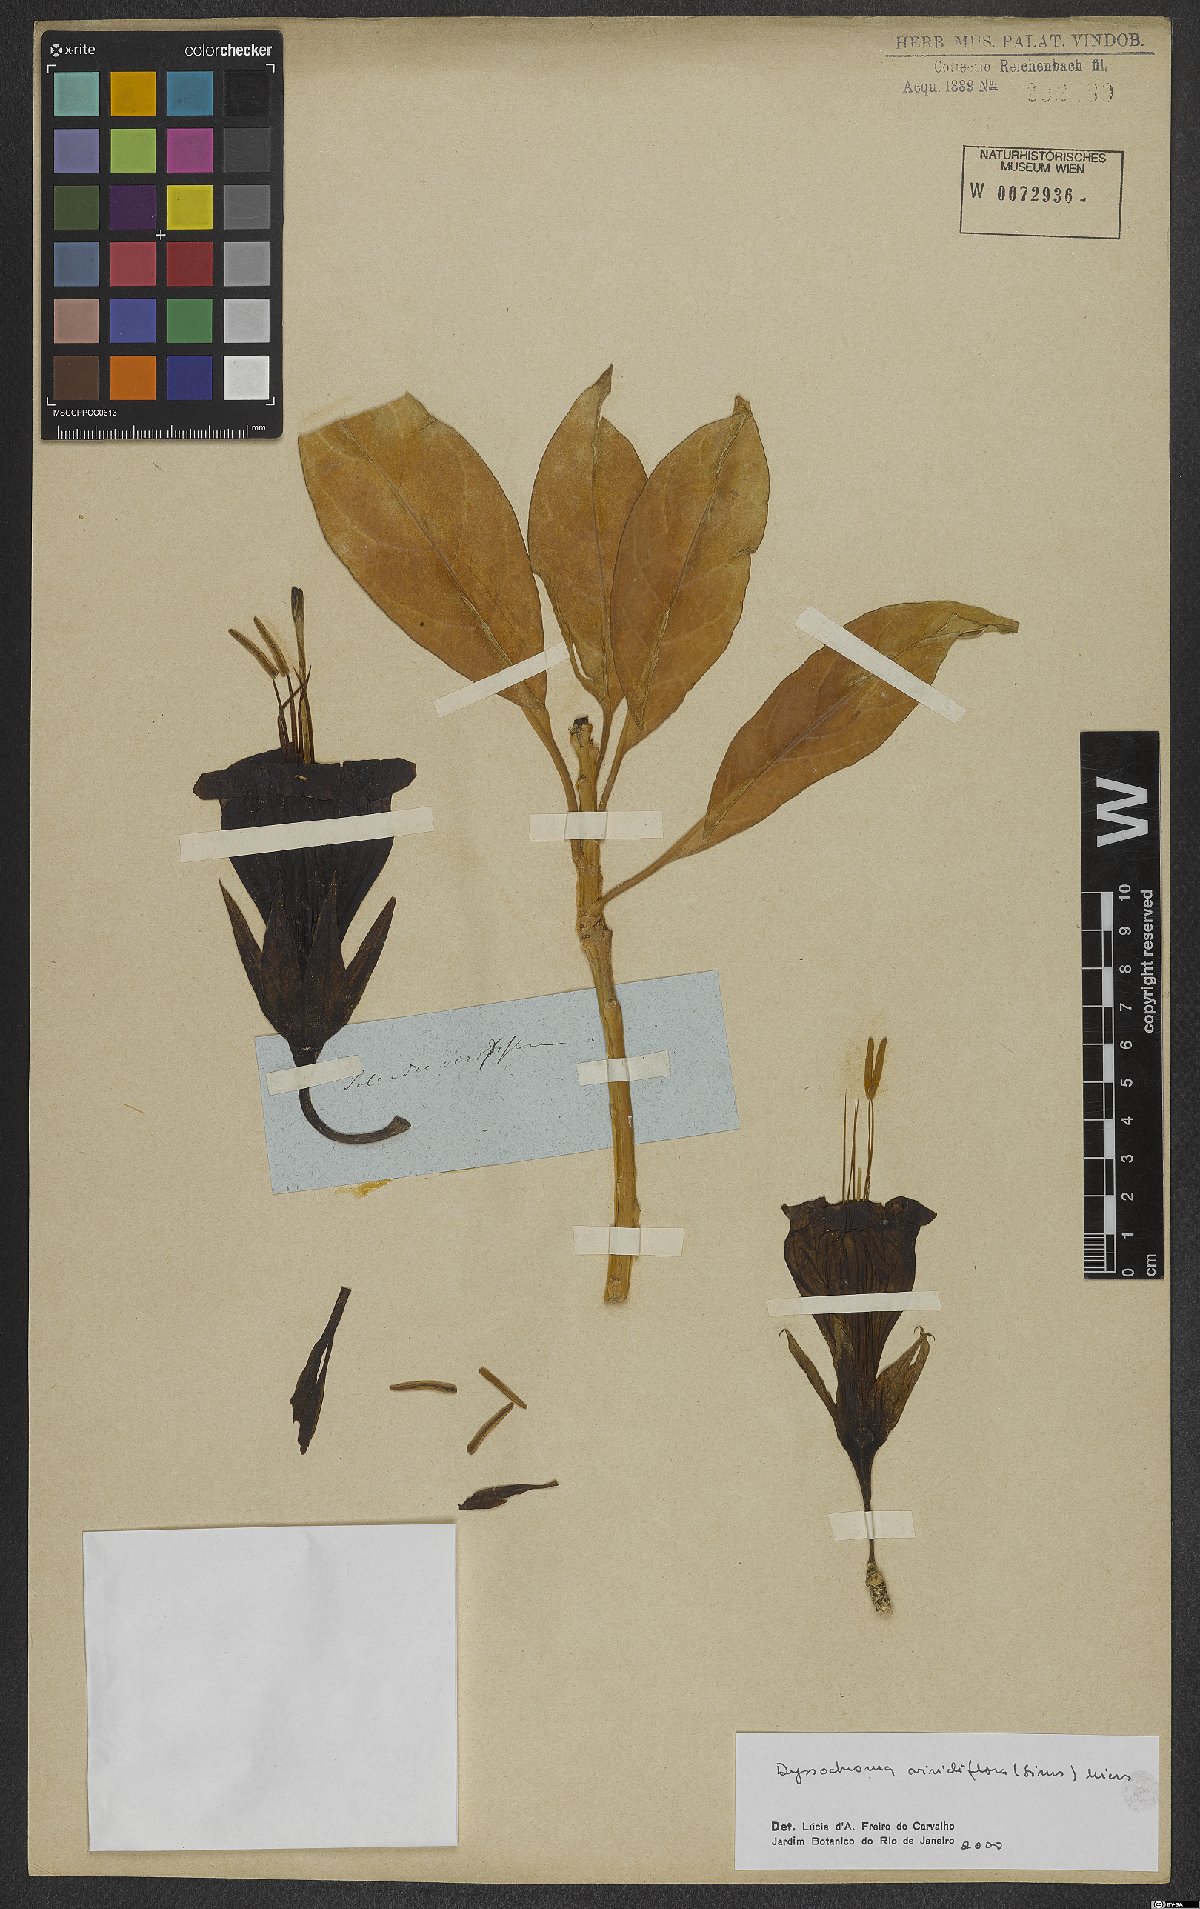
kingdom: Plantae
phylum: Tracheophyta
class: Magnoliopsida
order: Solanales
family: Solanaceae
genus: Dyssochroma
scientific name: Dyssochroma viridiflorum
